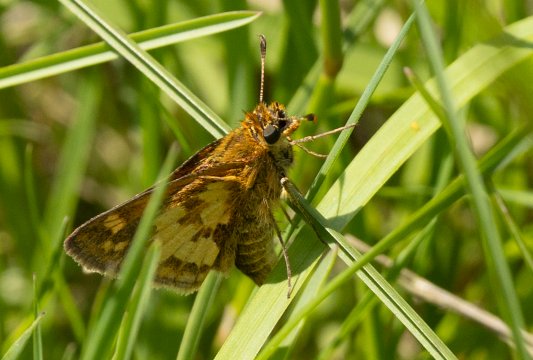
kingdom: Animalia
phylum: Arthropoda
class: Insecta
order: Lepidoptera
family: Hesperiidae
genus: Polites
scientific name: Polites coras
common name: Peck's Skipper
